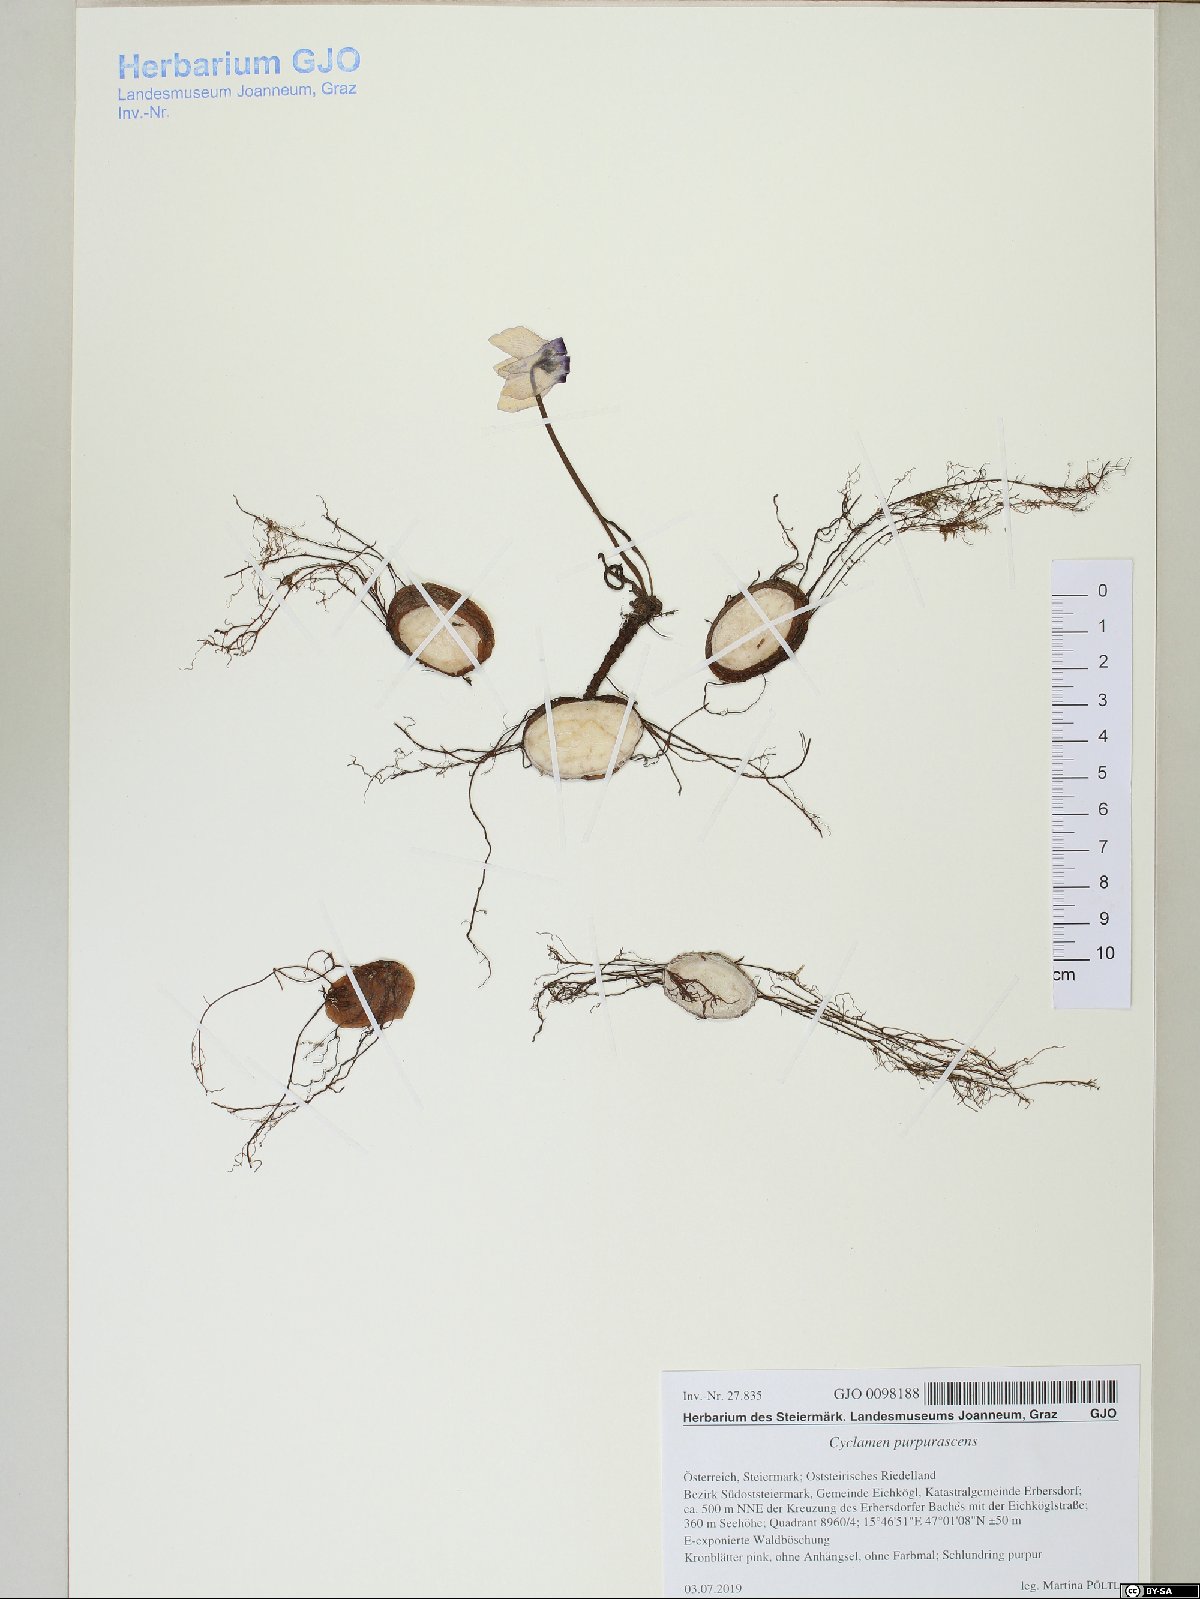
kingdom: Plantae
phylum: Tracheophyta
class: Magnoliopsida
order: Ericales
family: Primulaceae
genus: Cyclamen
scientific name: Cyclamen purpurascens
